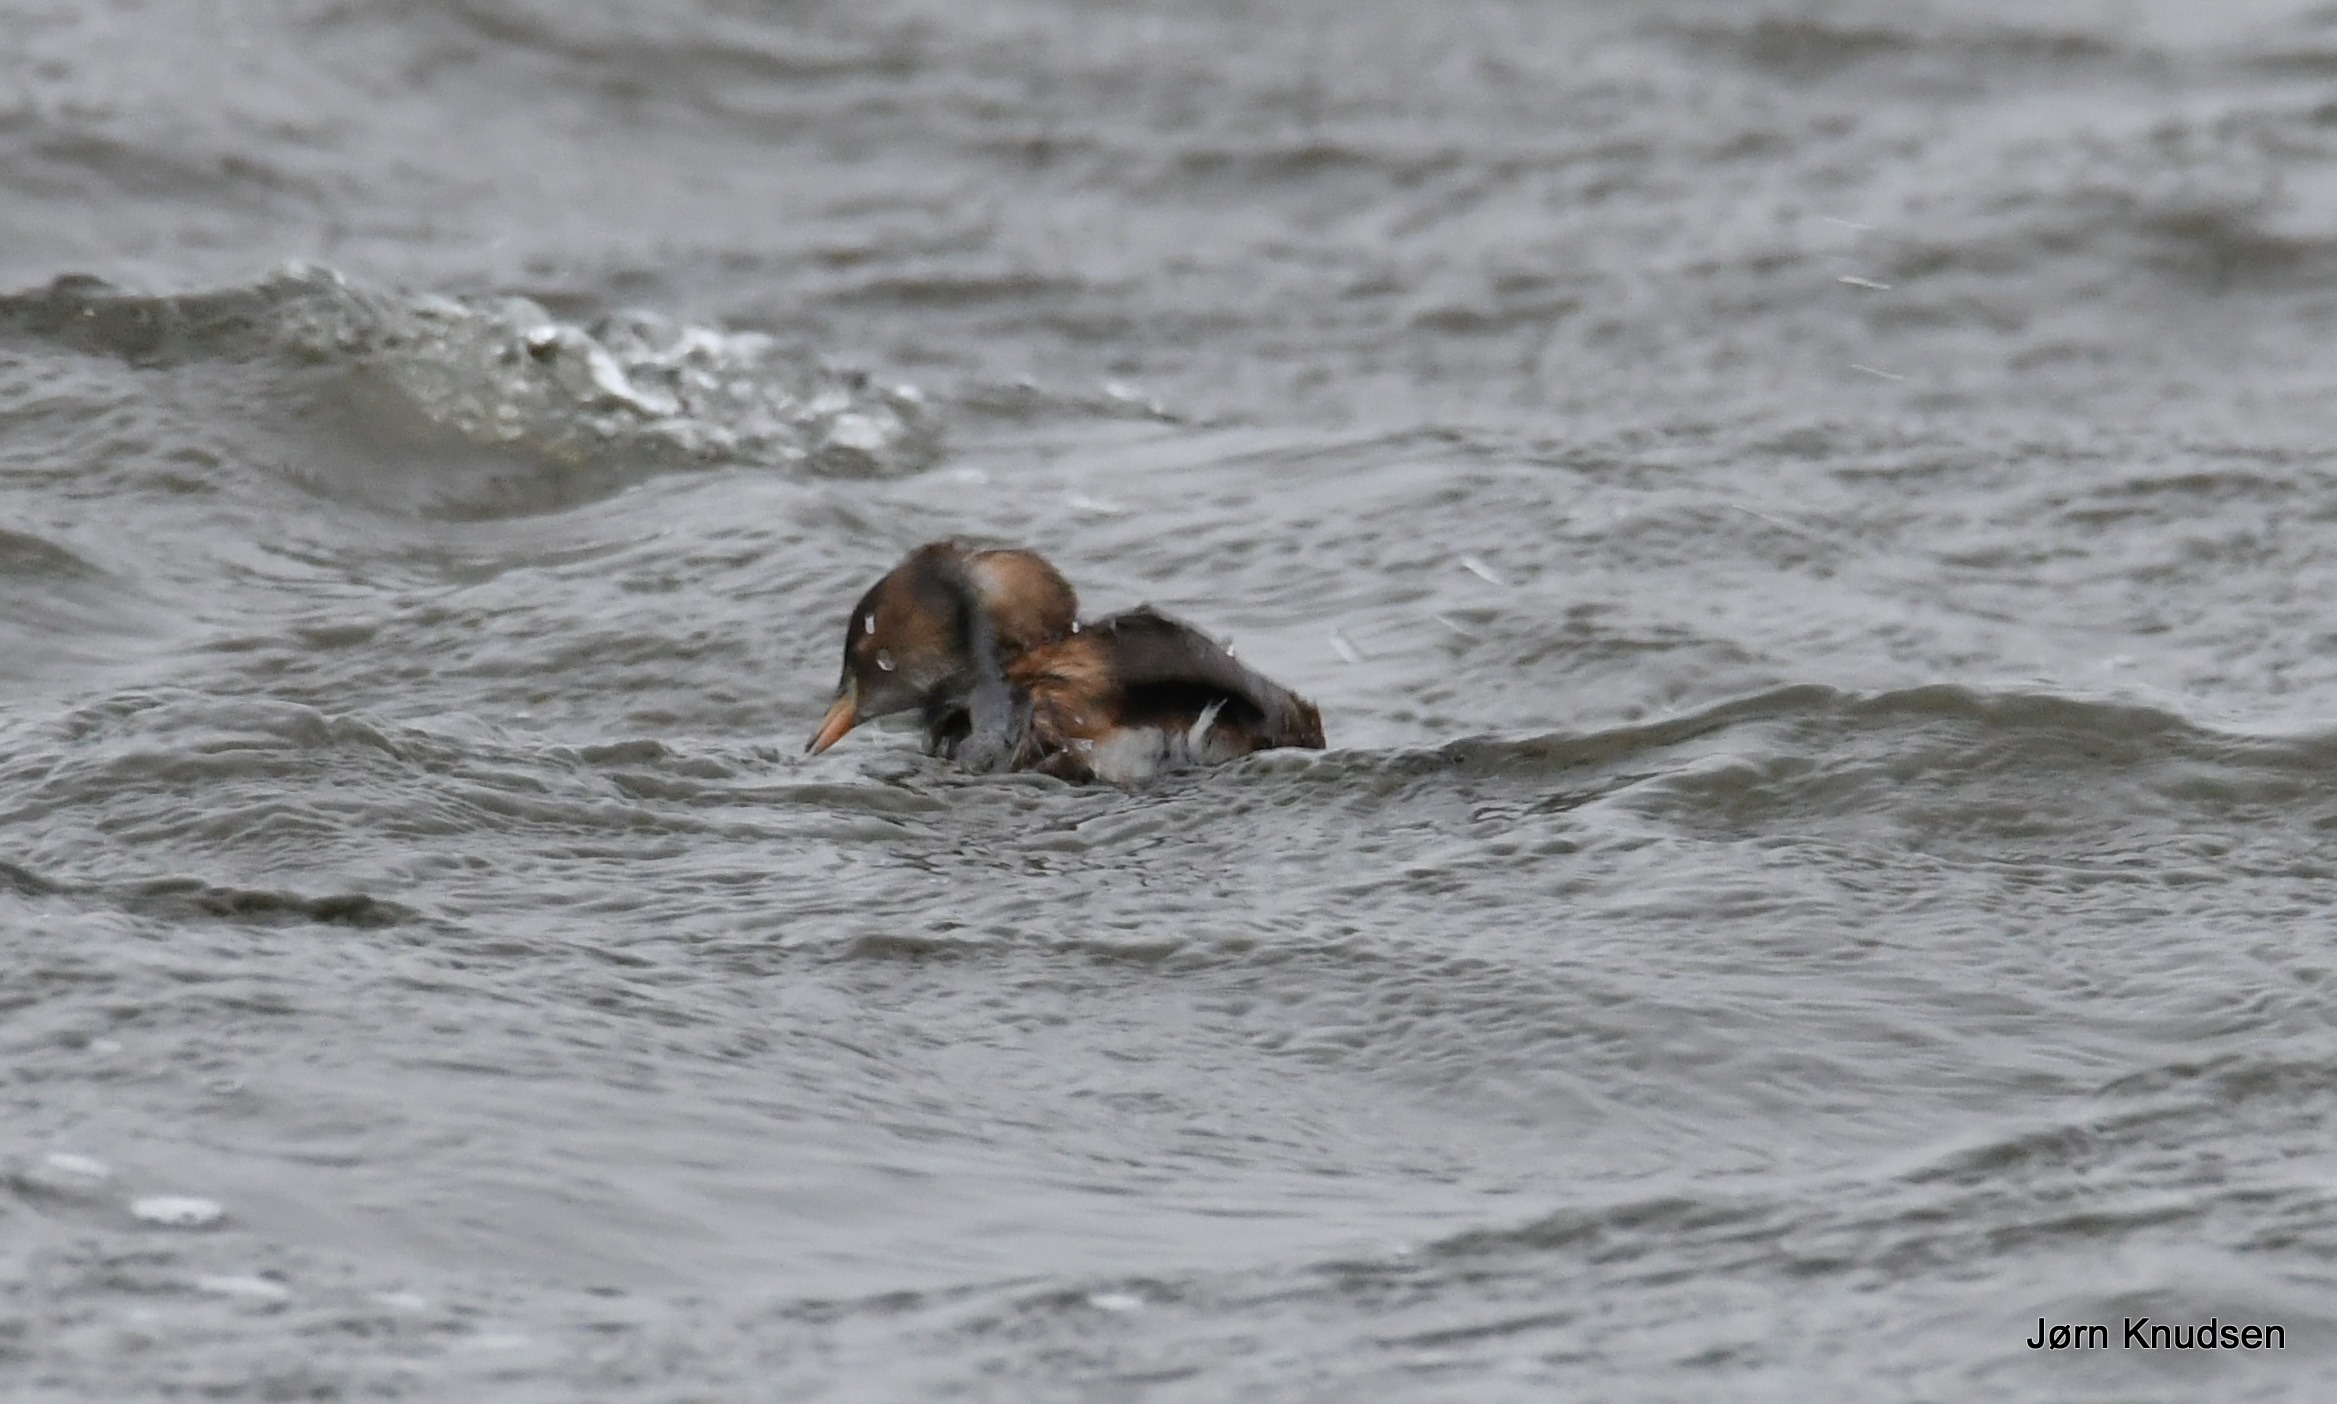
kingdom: Animalia
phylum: Chordata
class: Aves
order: Podicipediformes
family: Podicipedidae
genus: Tachybaptus
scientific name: Tachybaptus ruficollis
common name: Lille lappedykker
